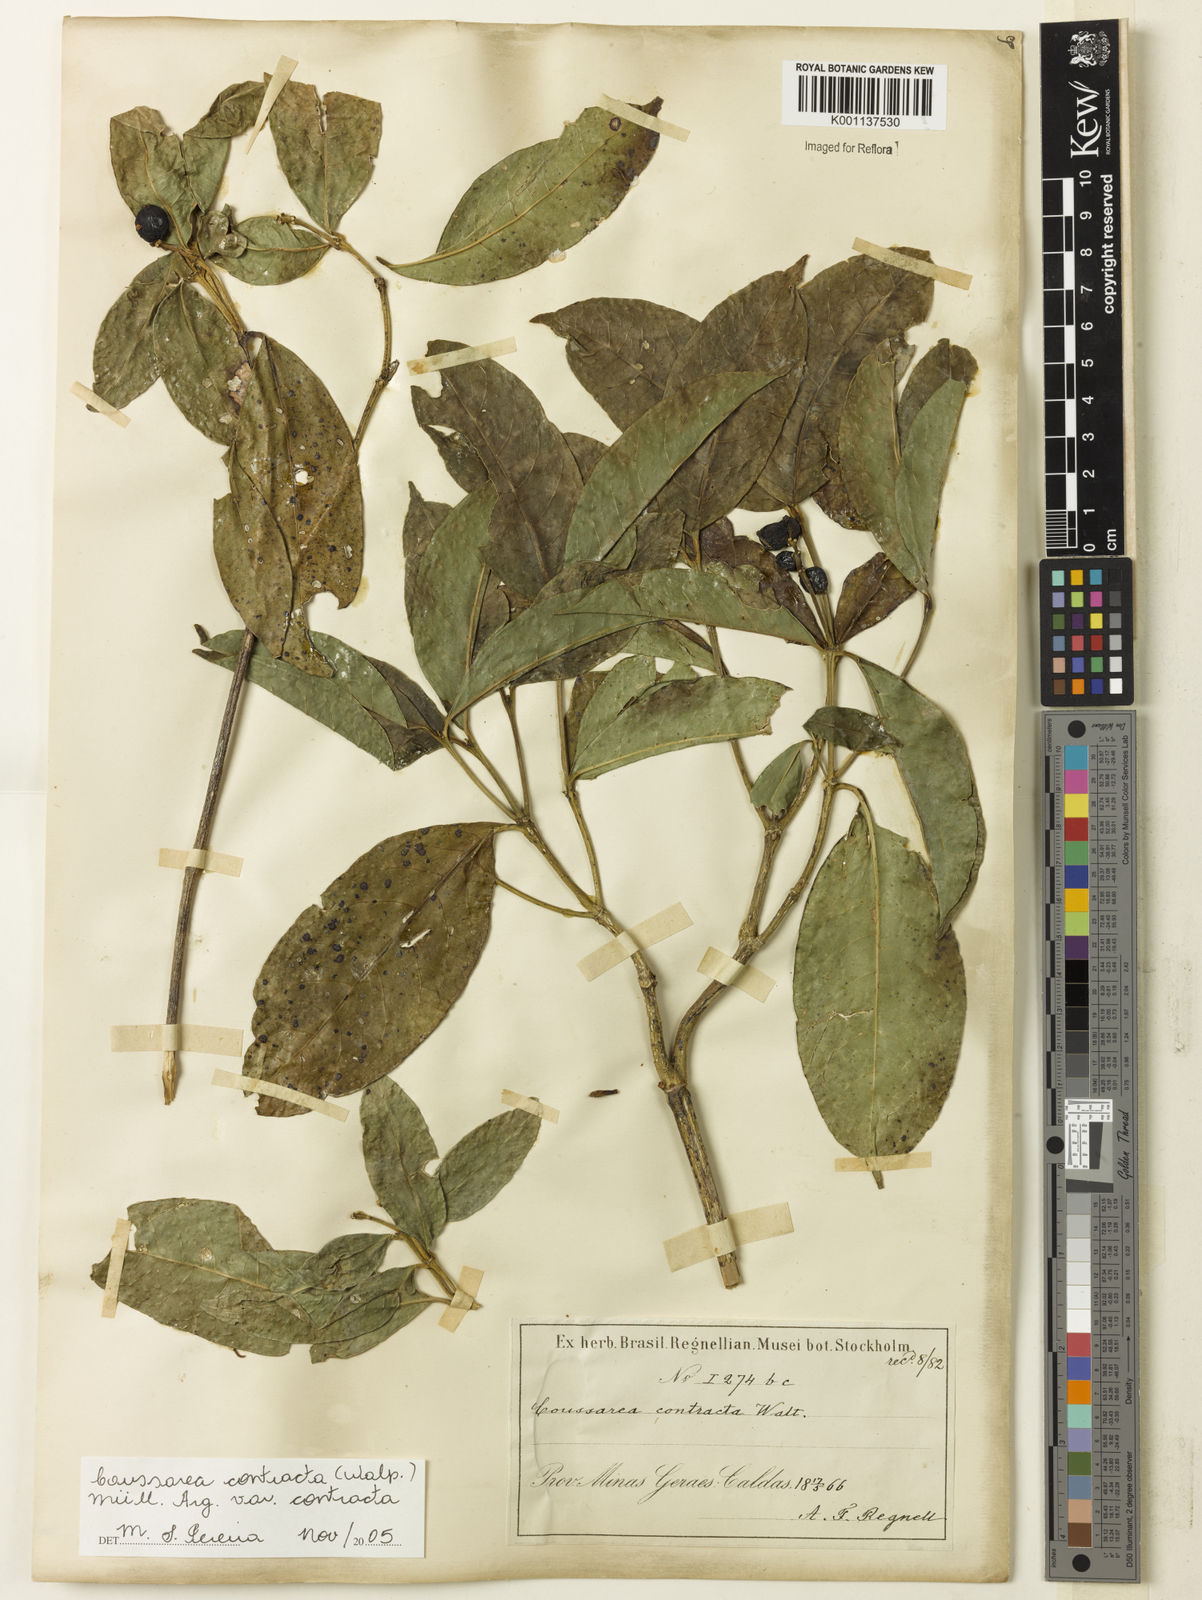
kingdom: Plantae
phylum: Tracheophyta
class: Magnoliopsida
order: Gentianales
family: Rubiaceae
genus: Coussarea
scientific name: Coussarea
